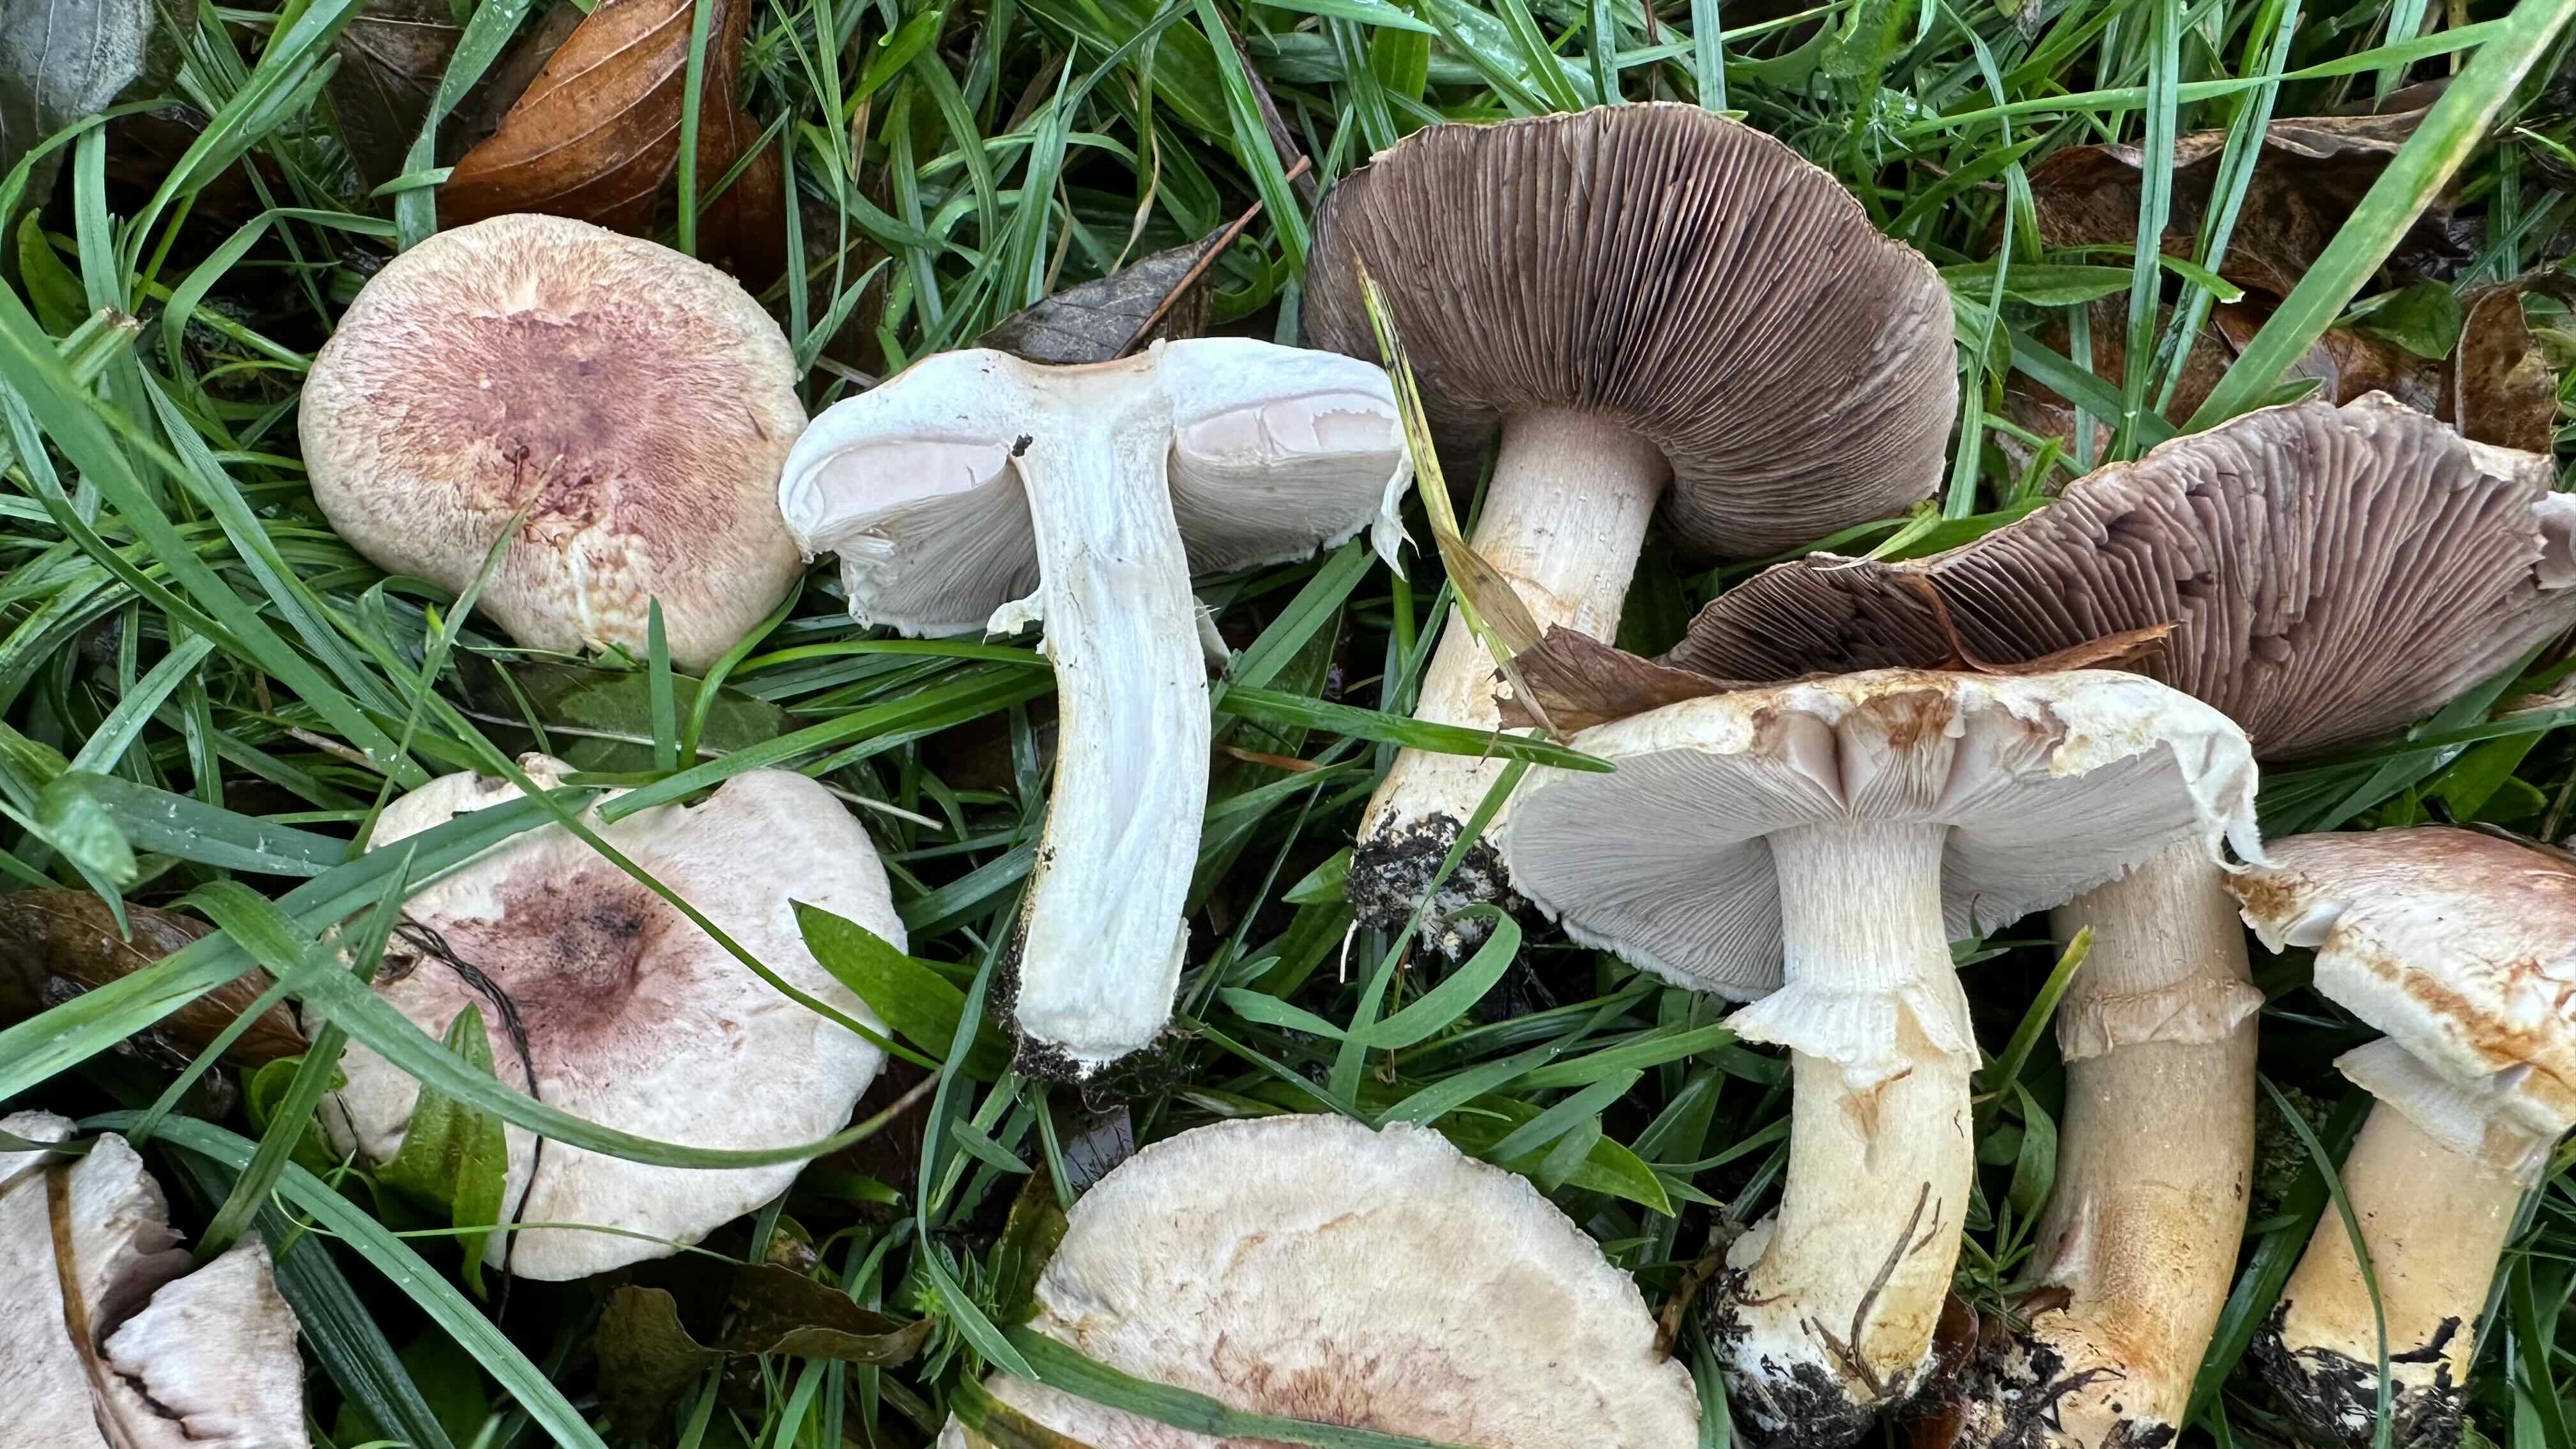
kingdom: Fungi
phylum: Basidiomycota
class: Agaricomycetes
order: Agaricales
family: Agaricaceae
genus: Agaricus
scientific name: Agaricus brunneolus
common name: purpur-champignon
